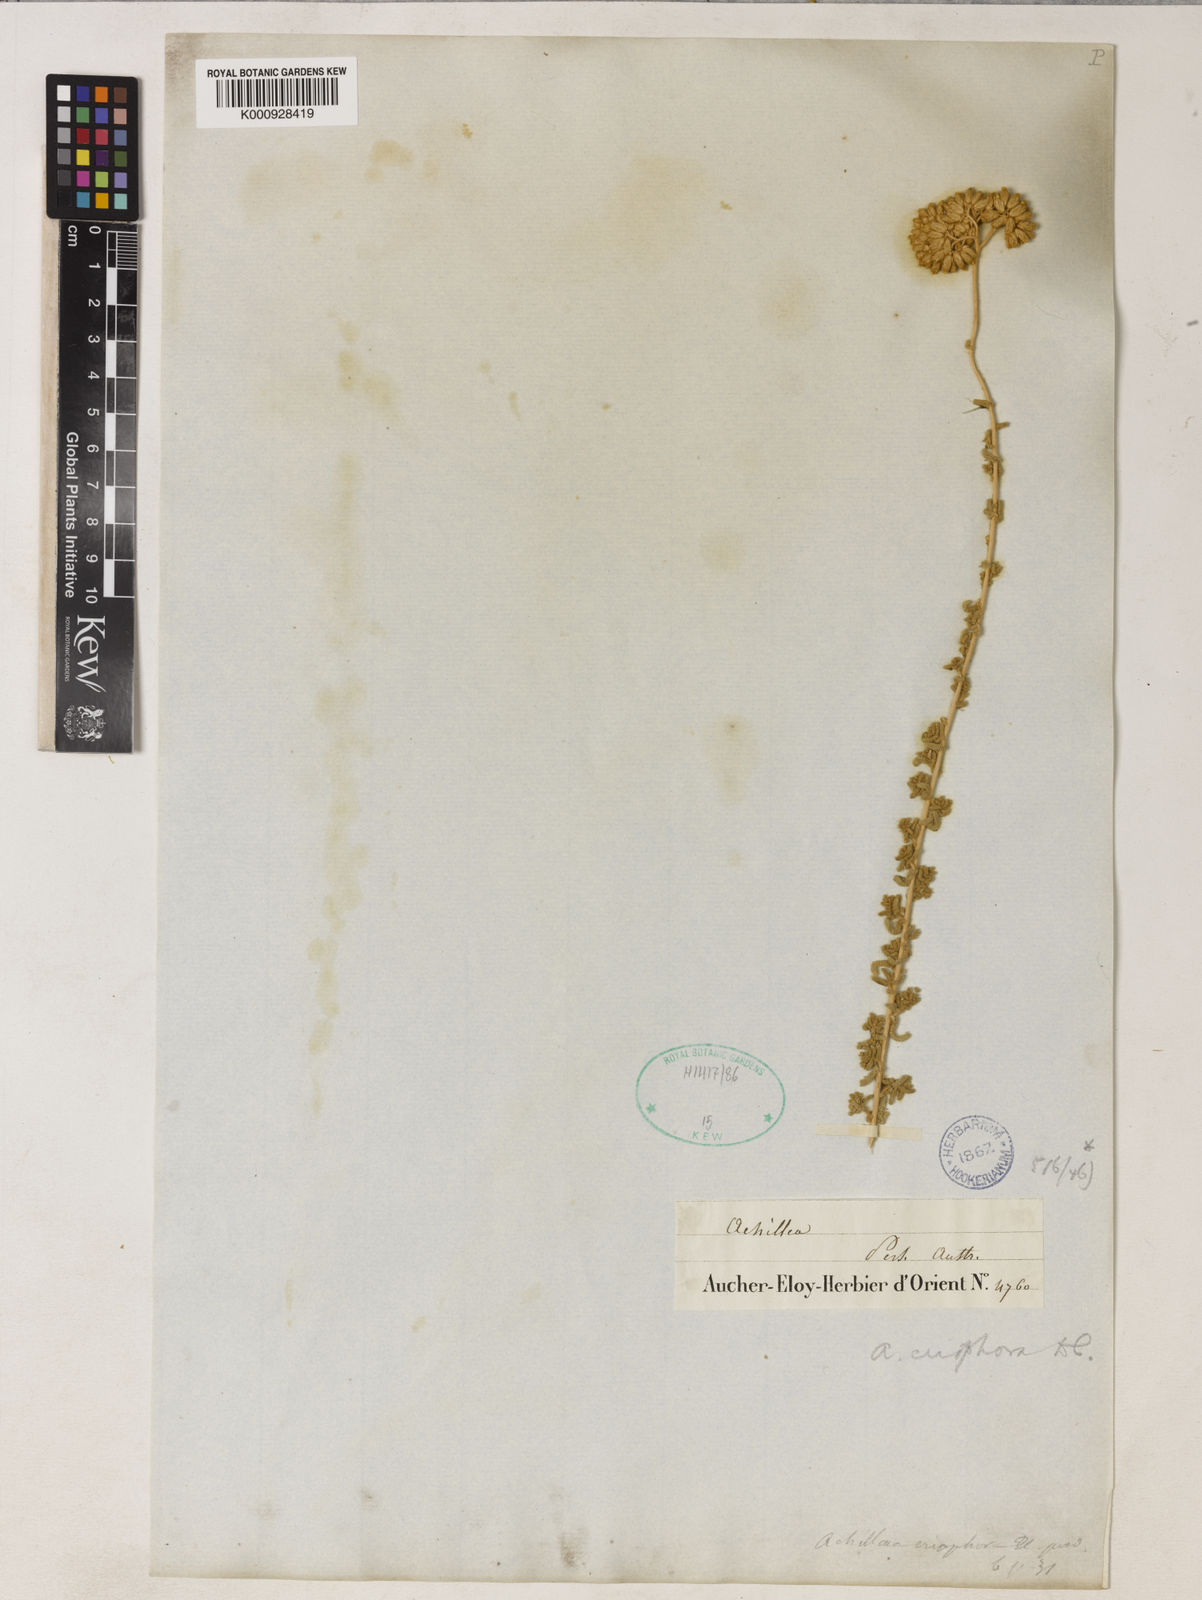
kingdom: Plantae
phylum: Tracheophyta
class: Magnoliopsida
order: Asterales
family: Asteraceae
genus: Achillea
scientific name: Achillea wilhelmsii
